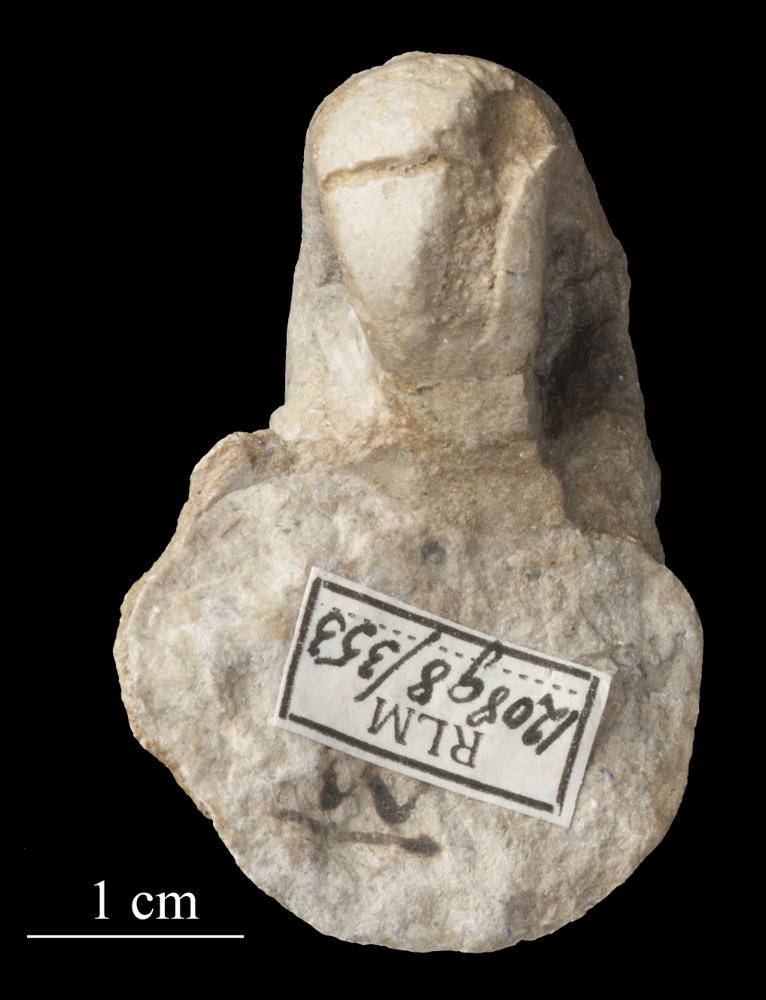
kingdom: Animalia
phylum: Mollusca
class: Gastropoda
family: Bellerophontidae
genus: Bellerophon
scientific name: Bellerophon
